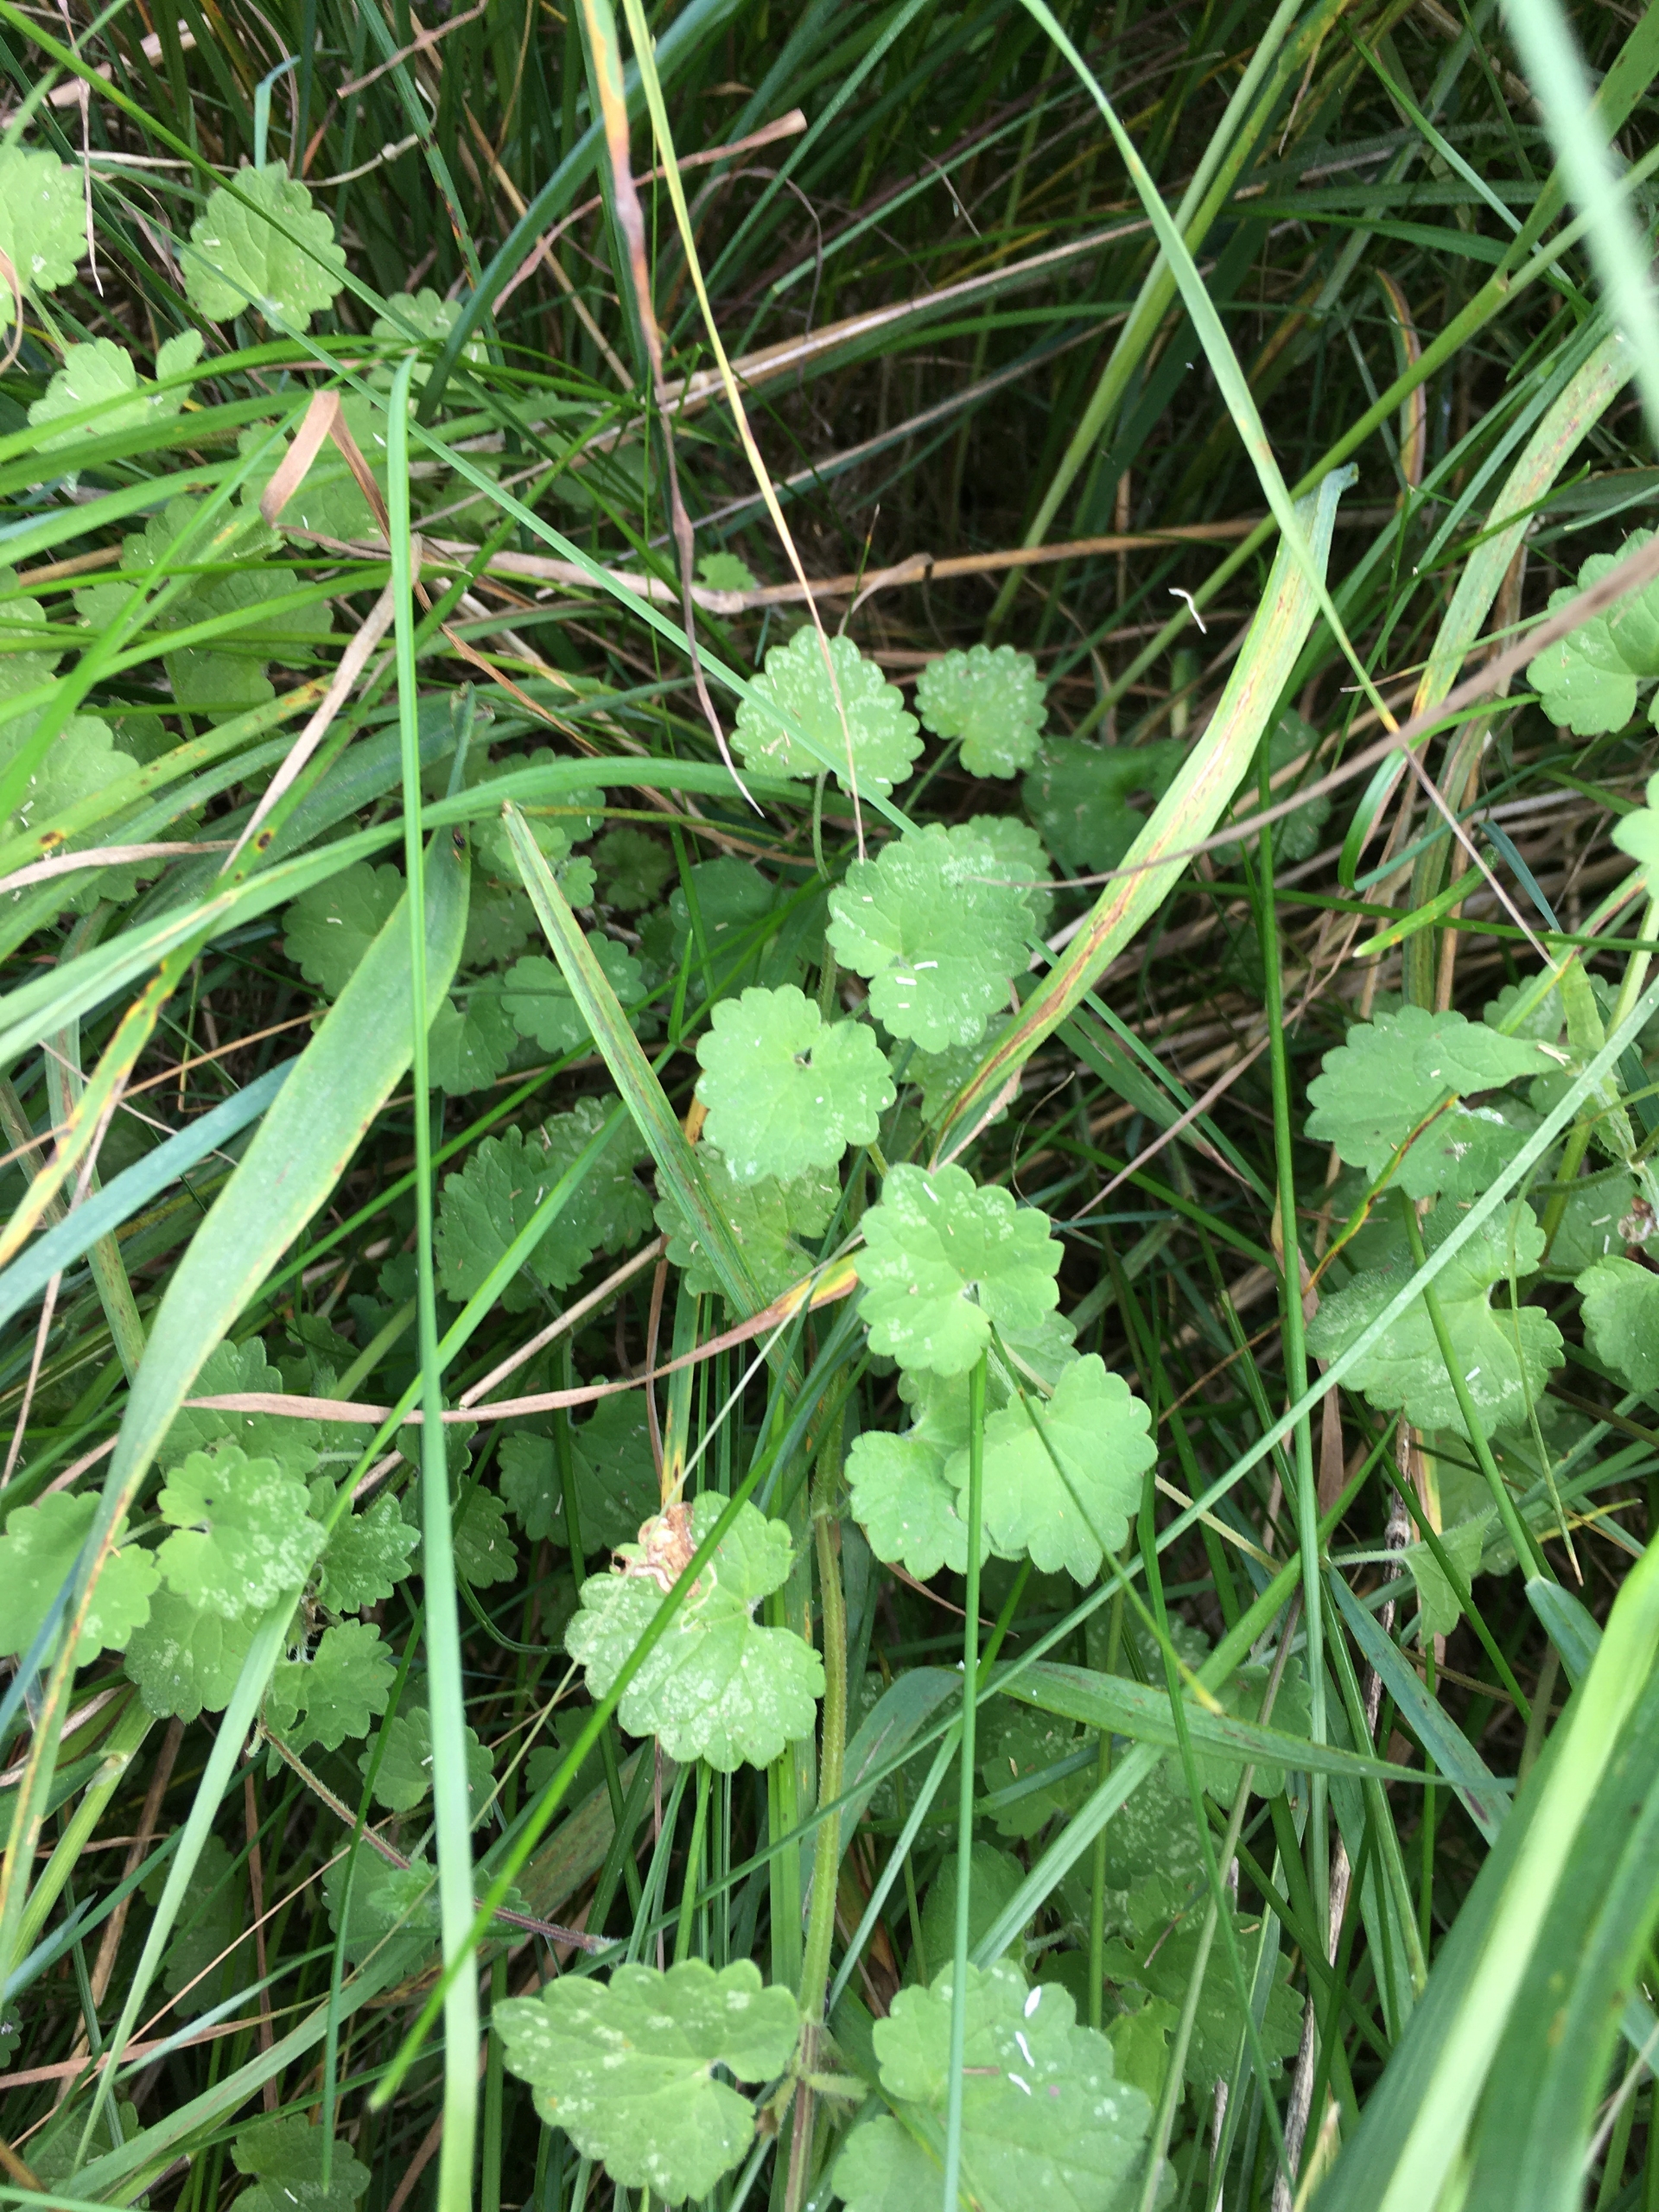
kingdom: Plantae
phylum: Tracheophyta
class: Magnoliopsida
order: Lamiales
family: Lamiaceae
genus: Glechoma
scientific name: Glechoma hederacea
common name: Korsknap
